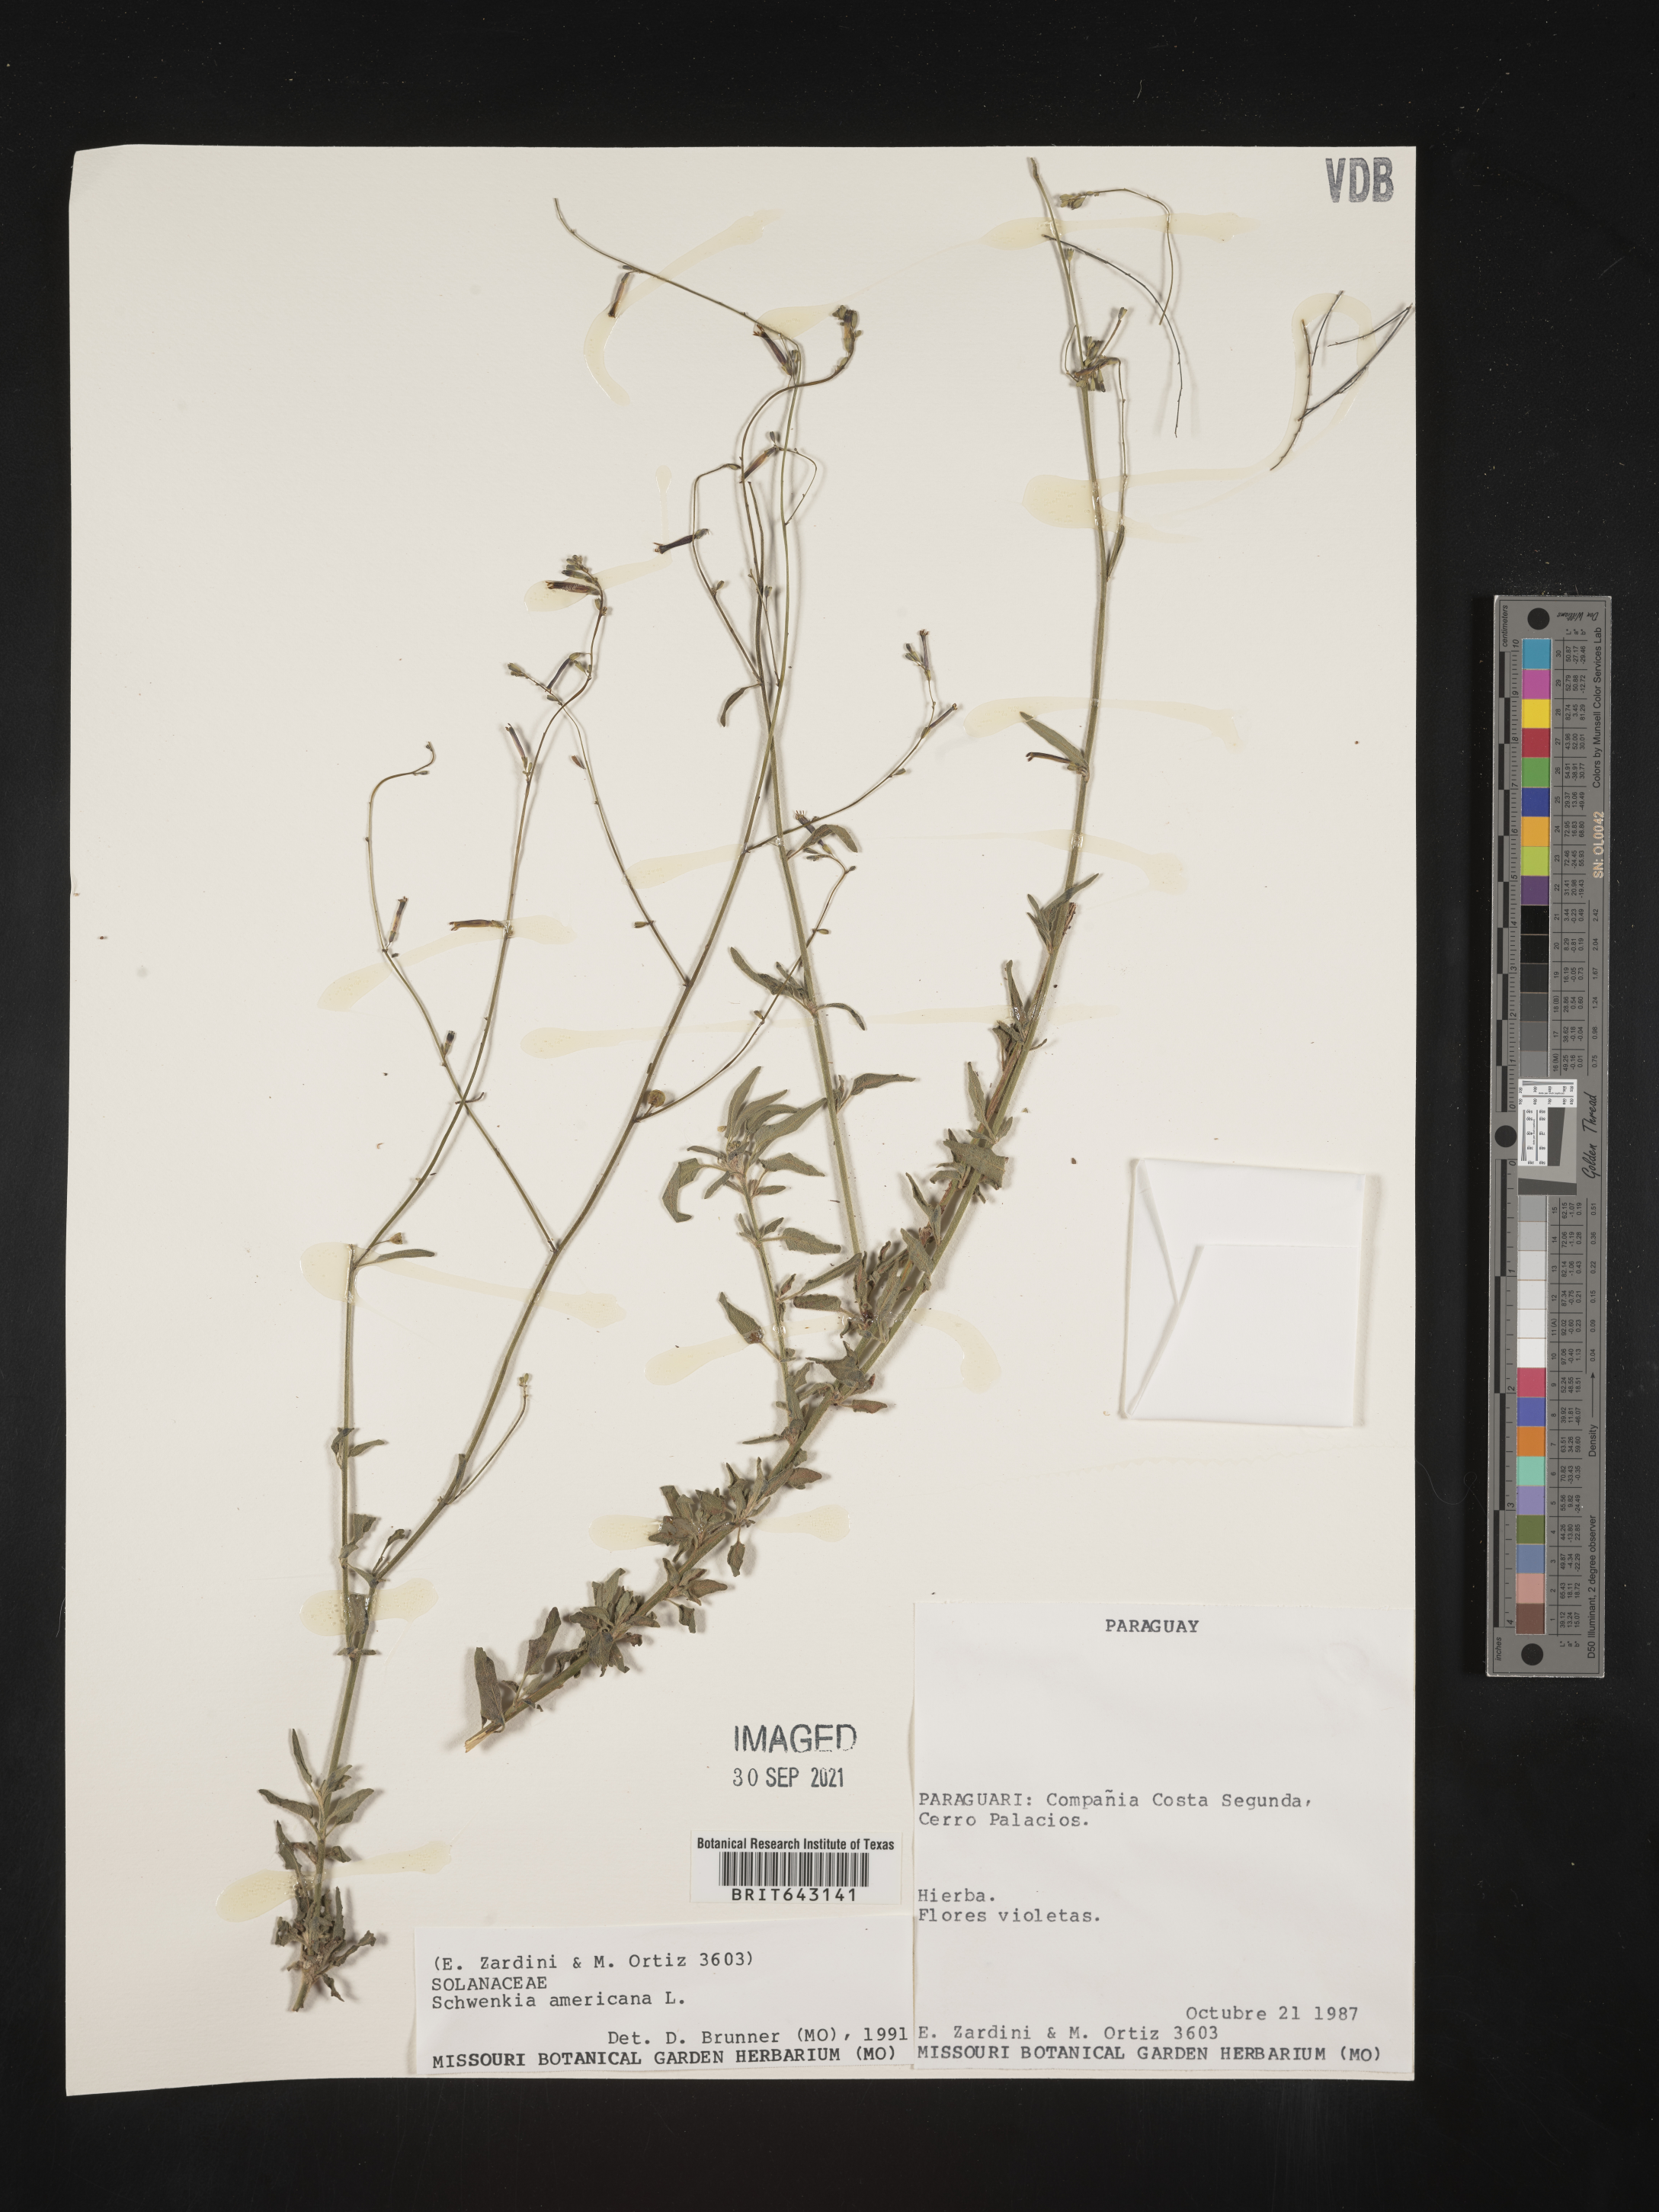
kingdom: Plantae
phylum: Tracheophyta
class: Magnoliopsida
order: Solanales
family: Solanaceae
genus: Schwenckia
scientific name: Schwenckia
